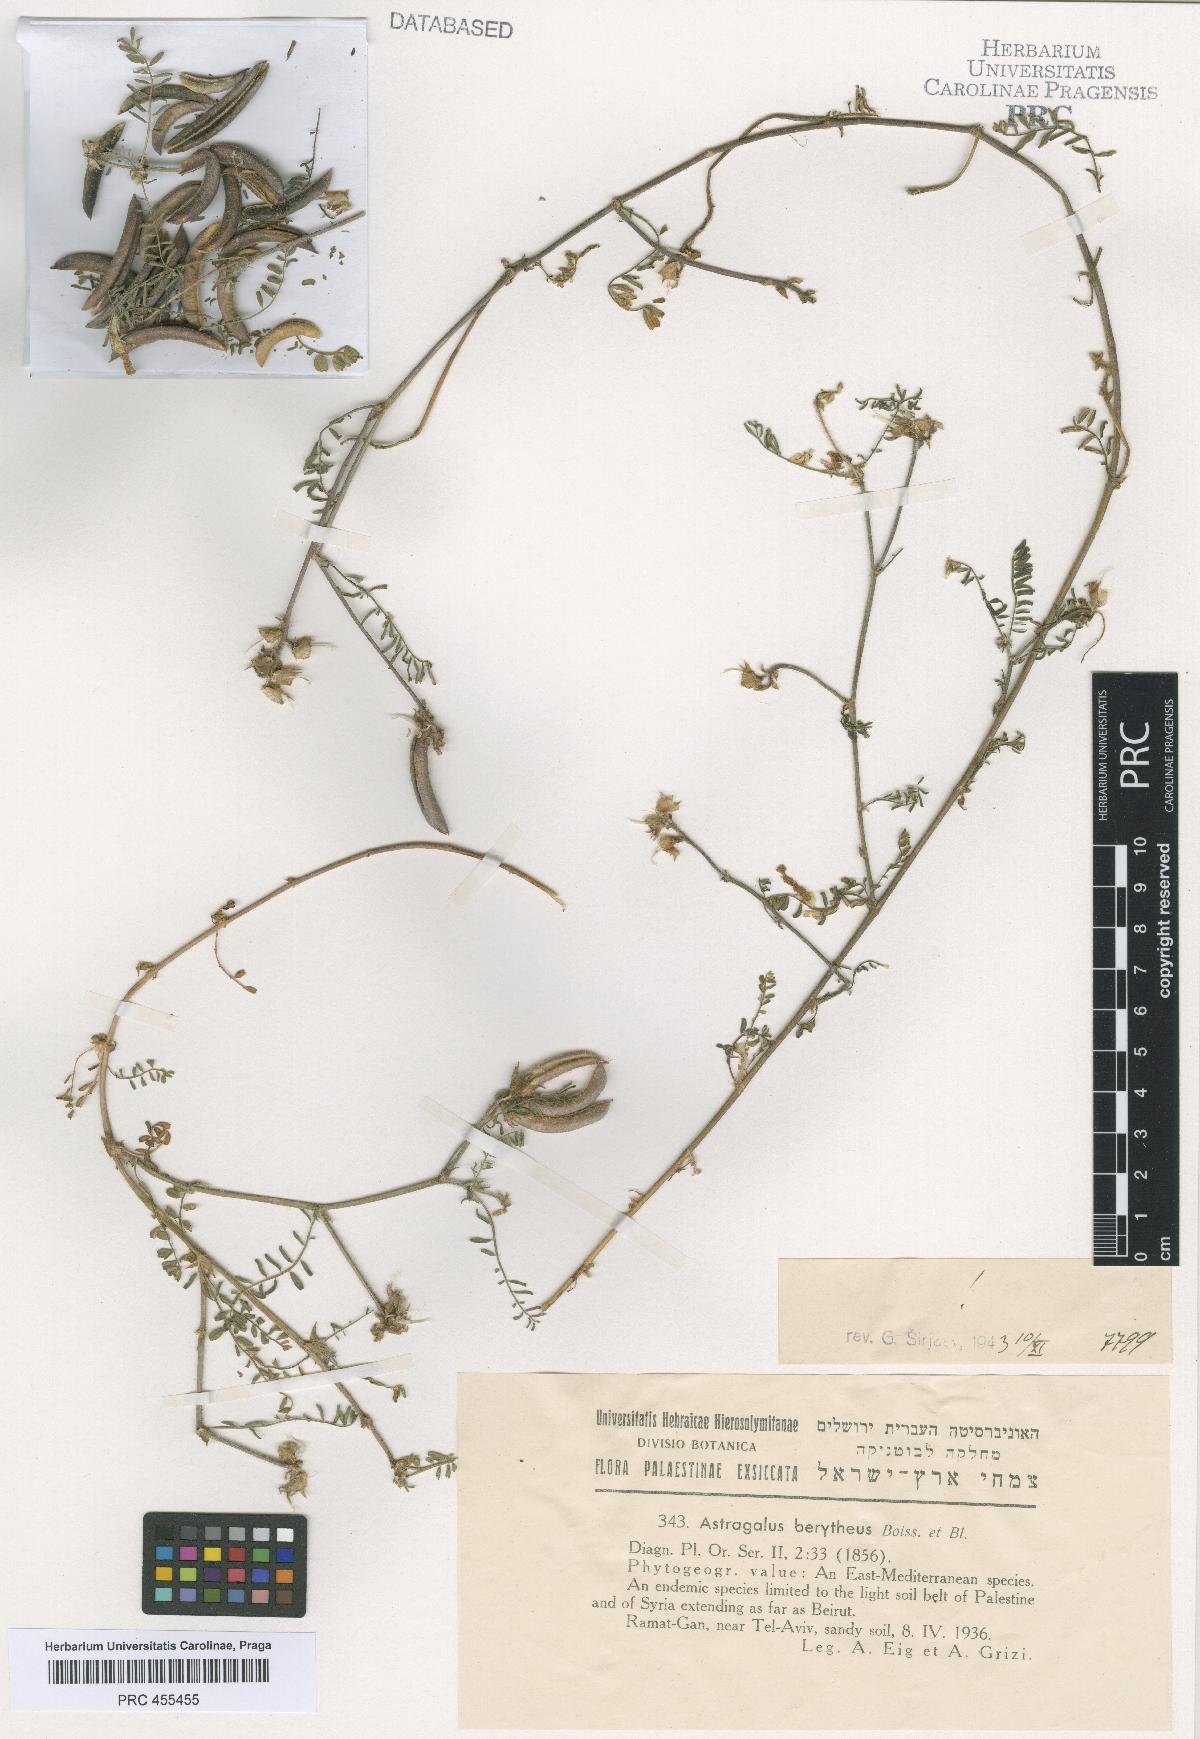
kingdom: Plantae
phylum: Tracheophyta
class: Magnoliopsida
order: Fabales
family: Fabaceae
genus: Astragalus
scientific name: Astragalus berytheus
